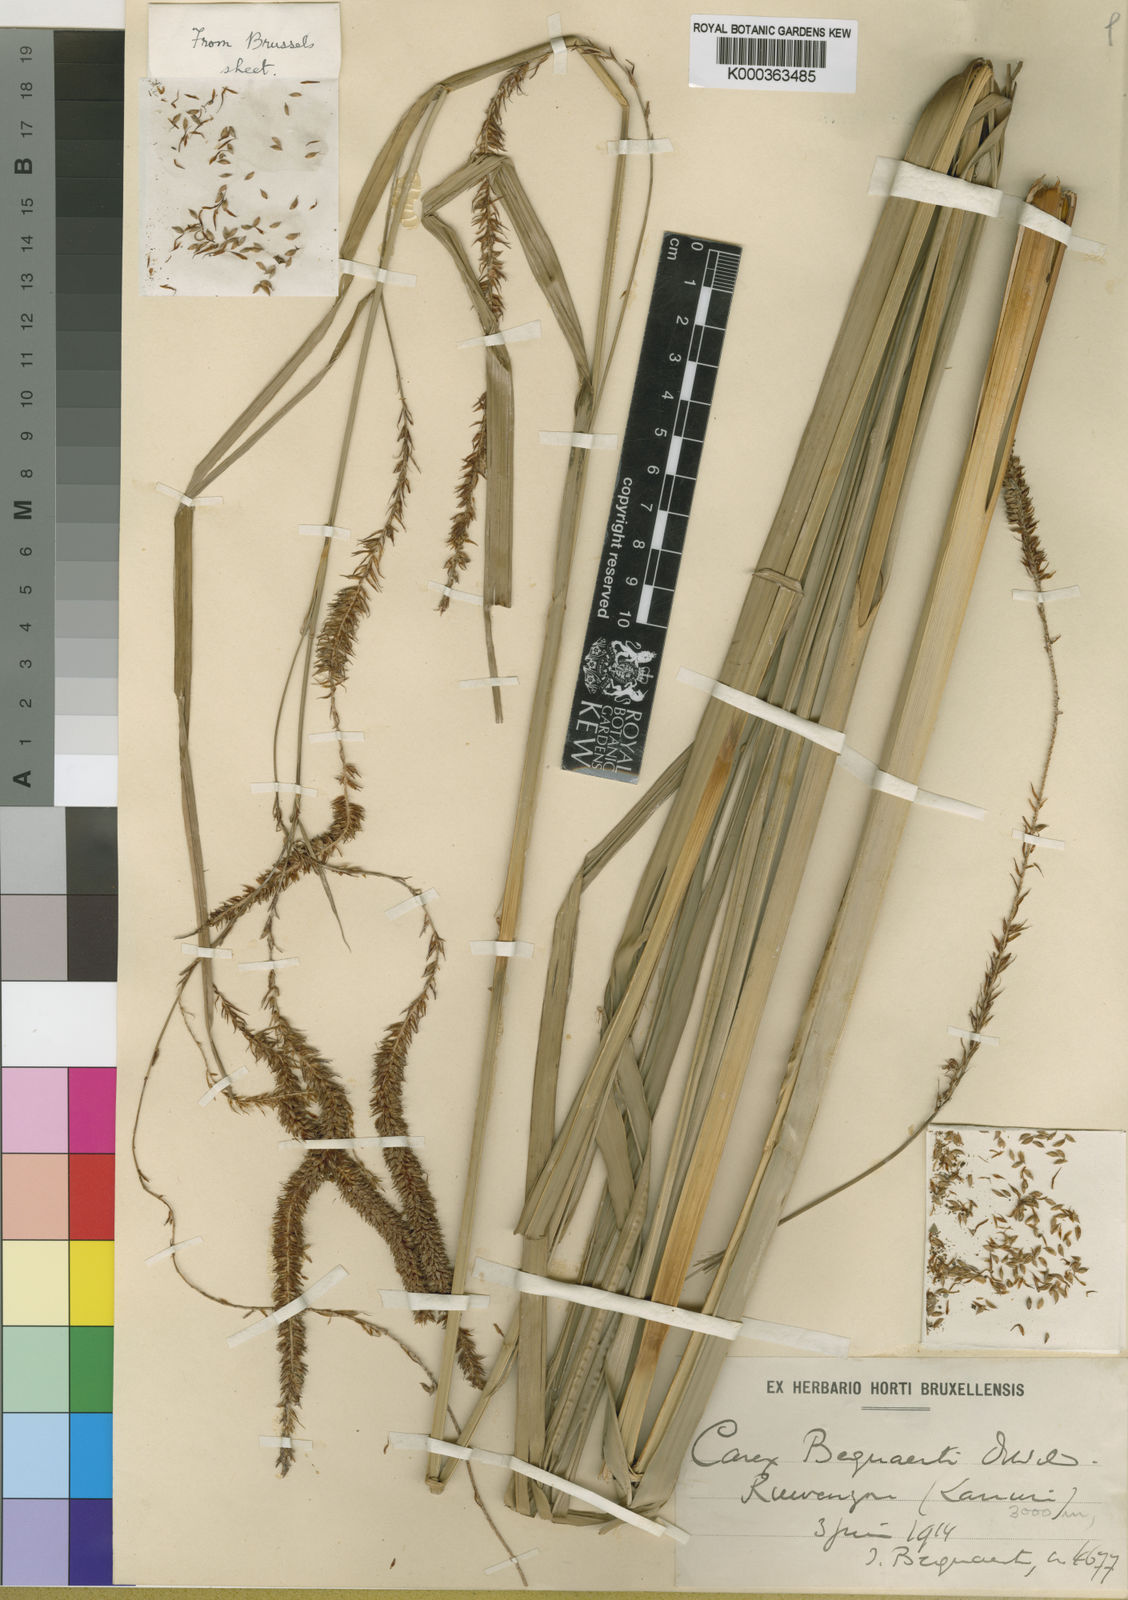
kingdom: Plantae
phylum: Tracheophyta
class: Liliopsida
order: Poales
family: Cyperaceae
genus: Carex
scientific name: Carex bequaertii
